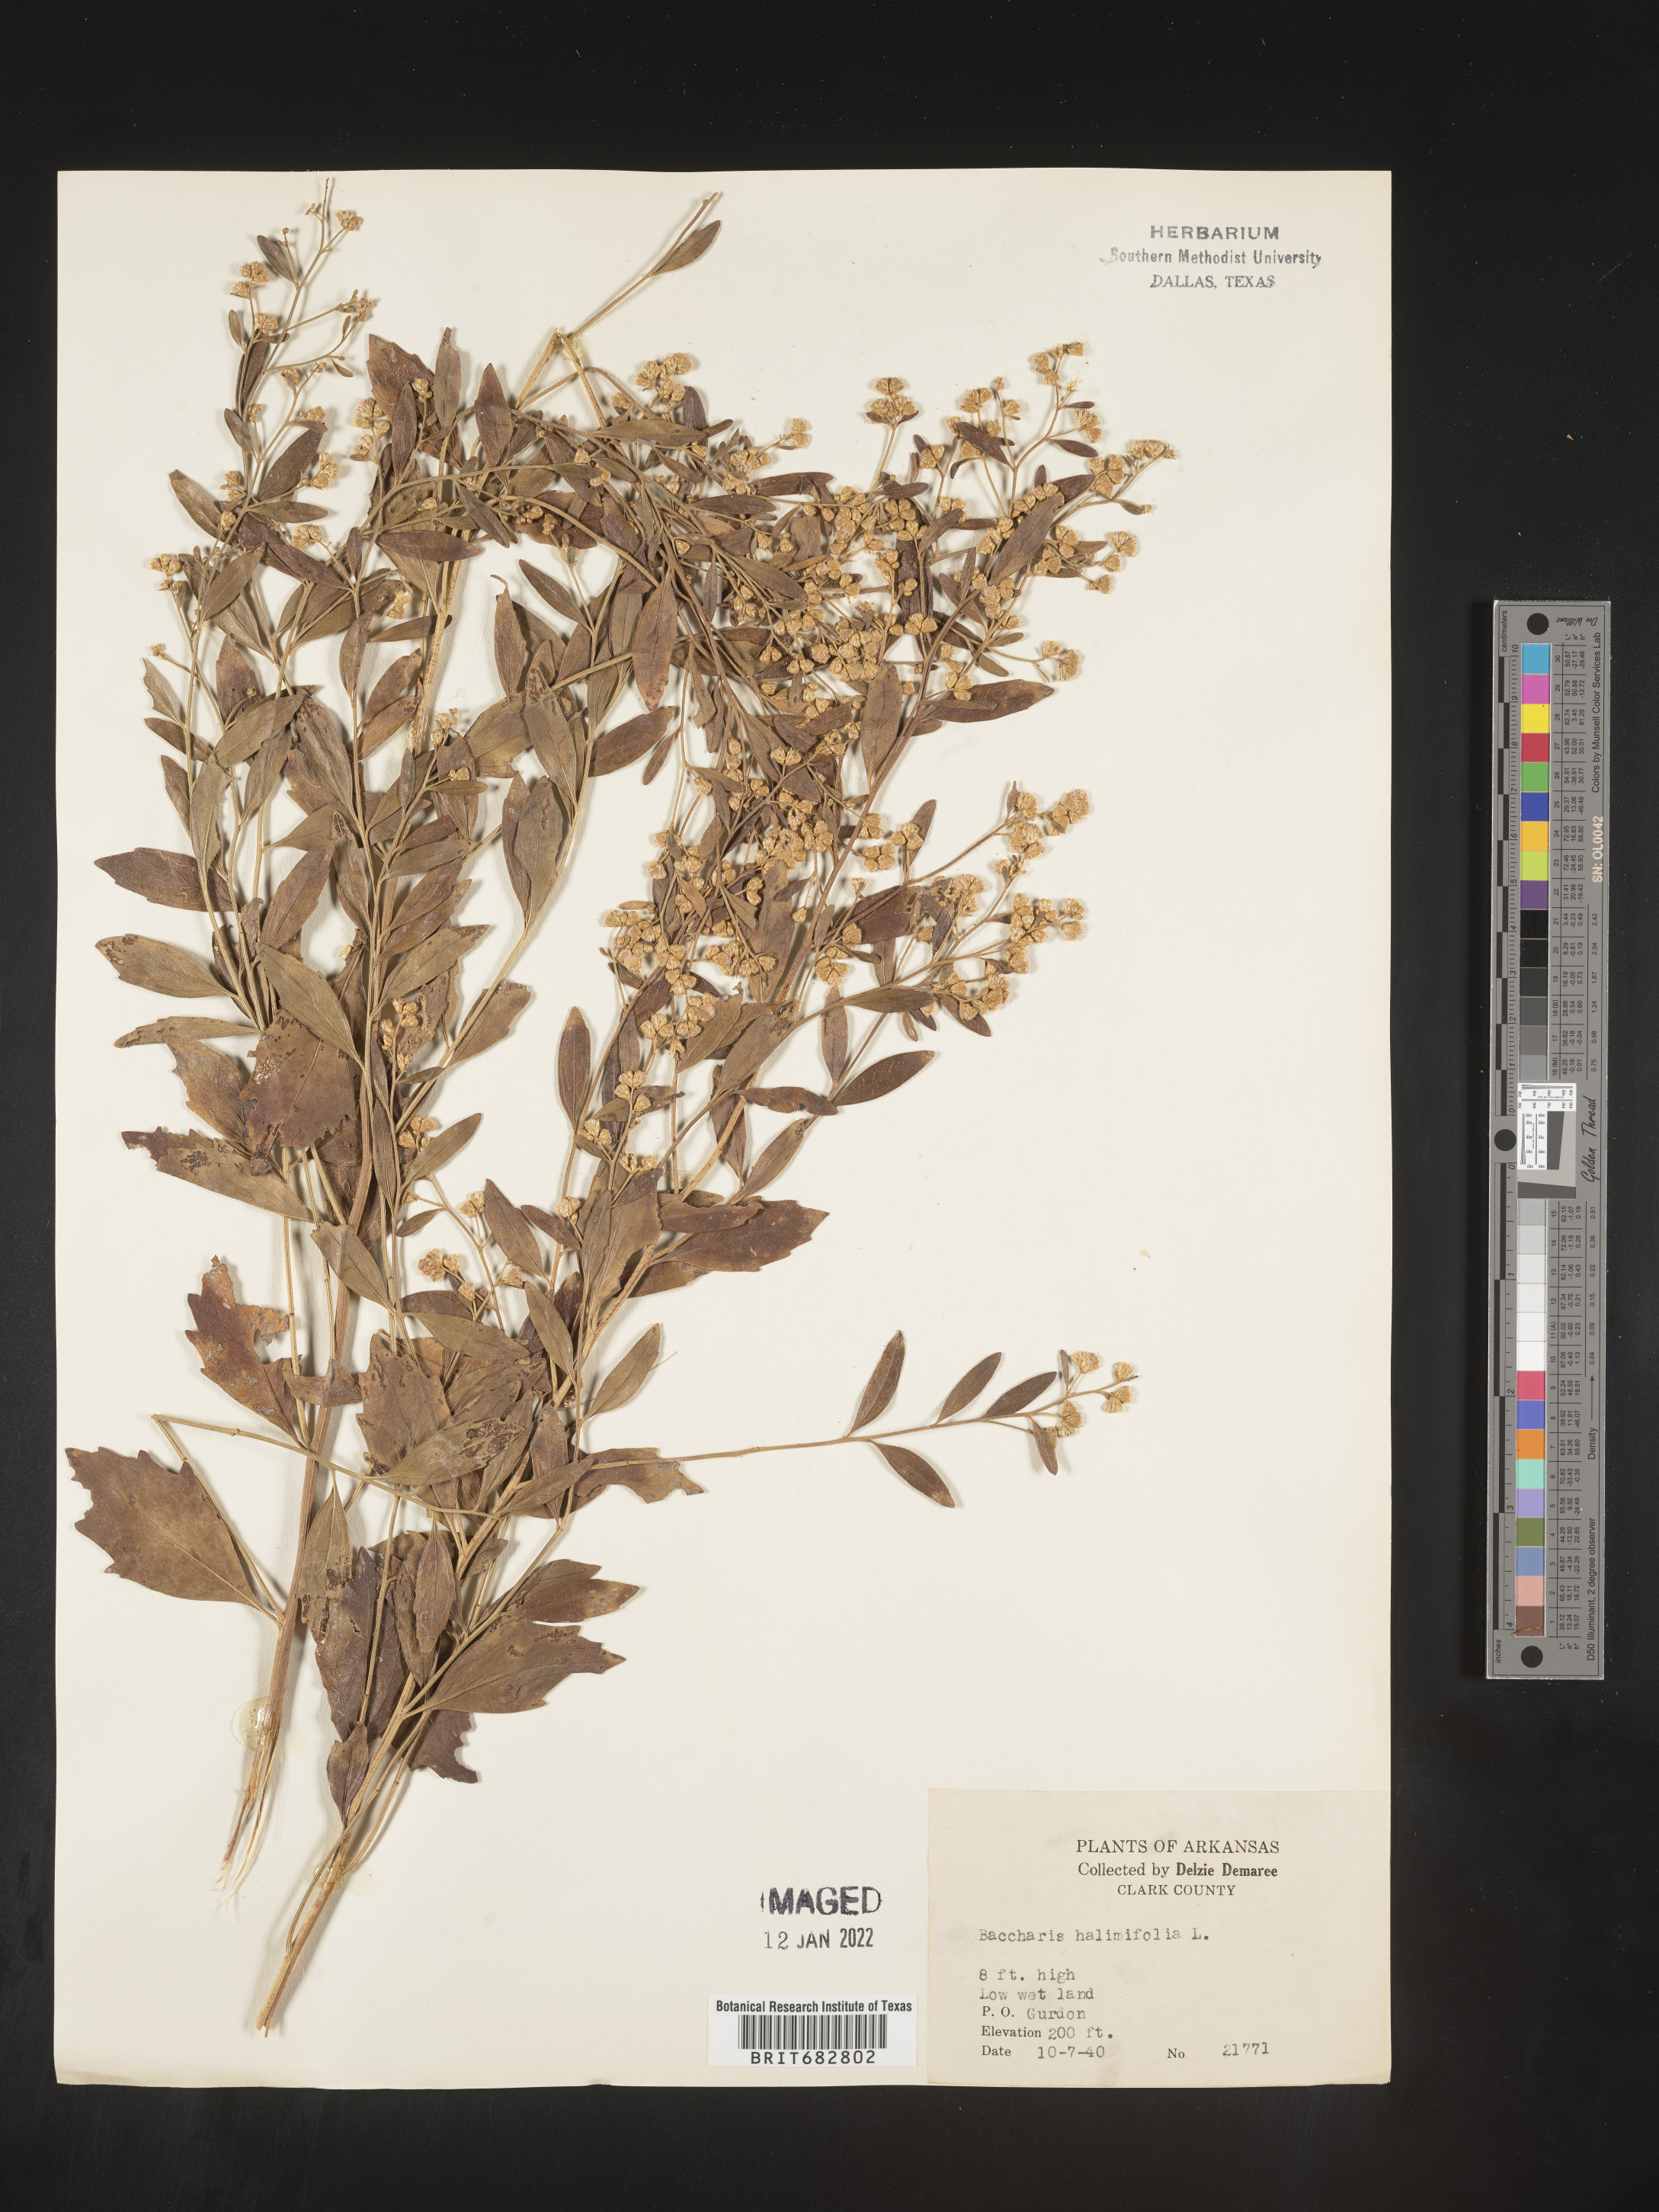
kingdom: Plantae
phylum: Tracheophyta
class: Magnoliopsida
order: Asterales
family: Asteraceae
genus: Nidorella
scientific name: Nidorella ivifolia
